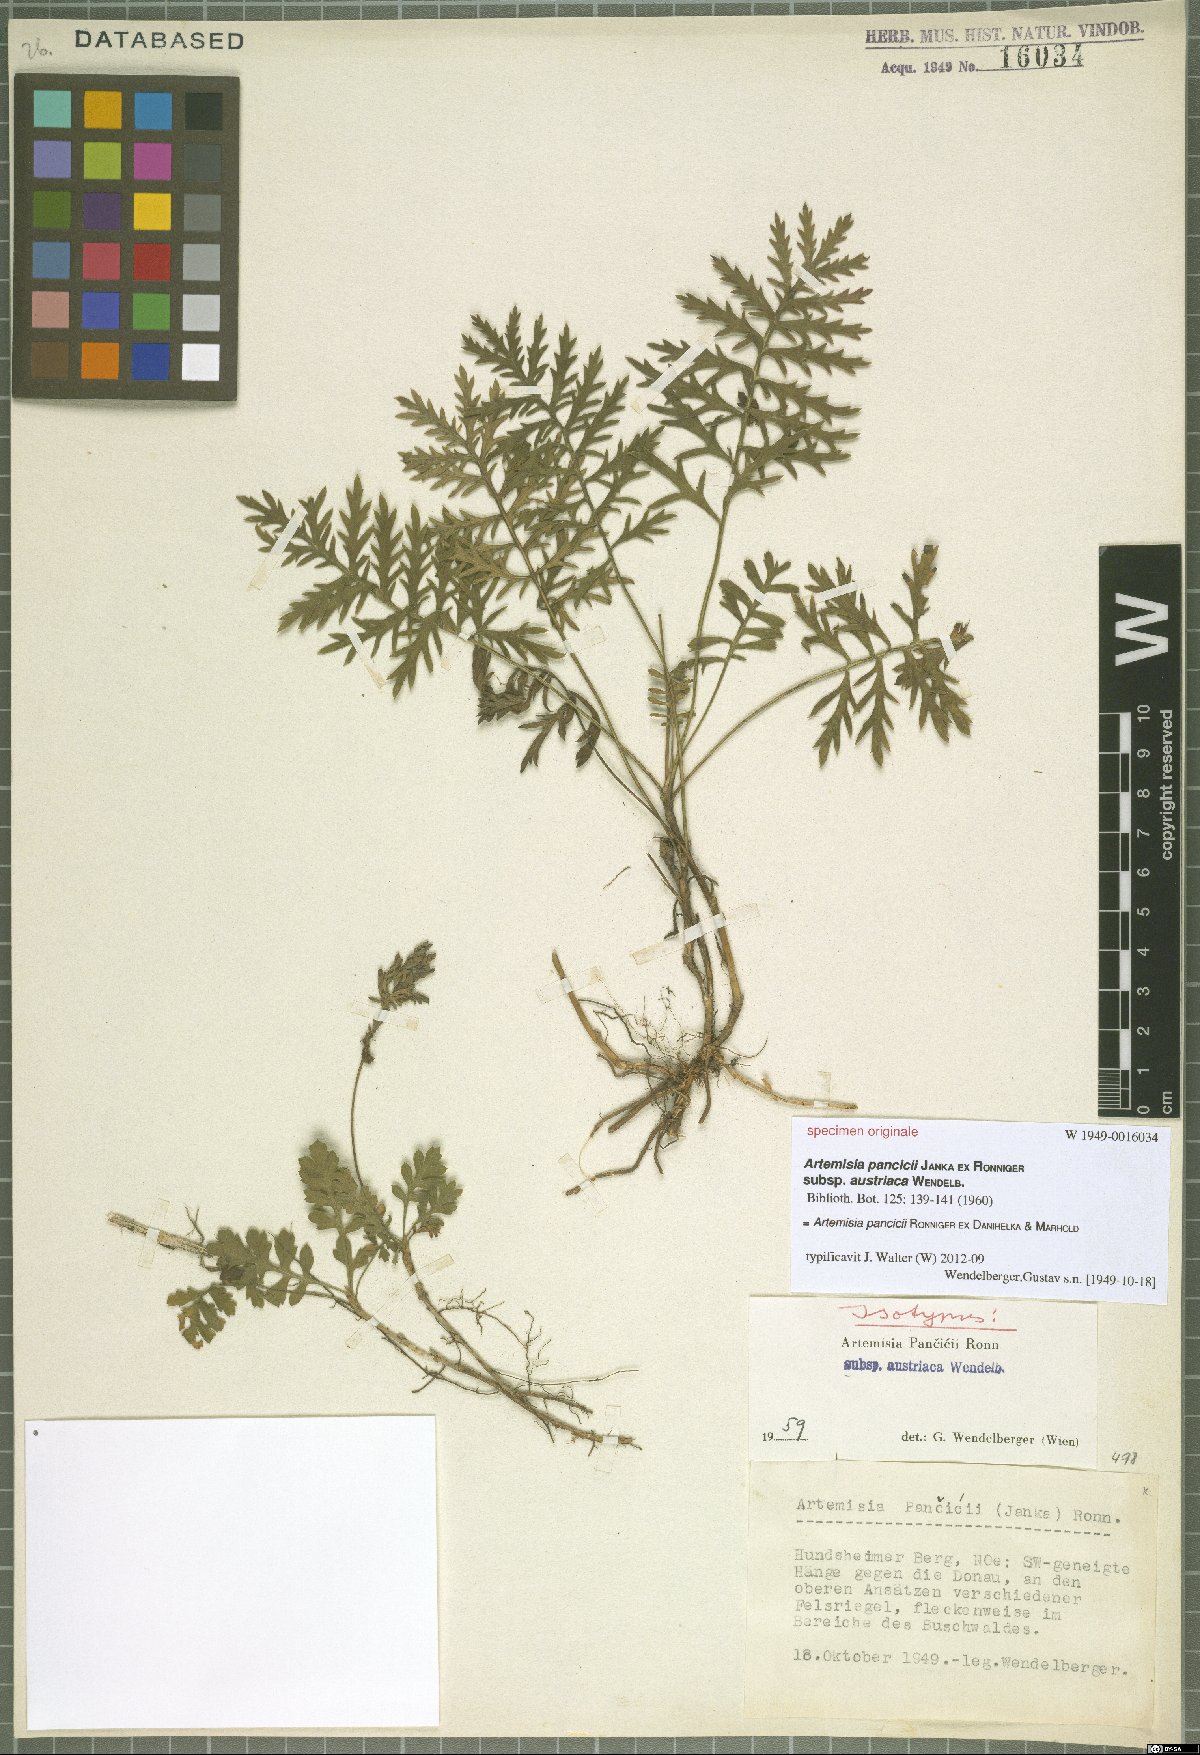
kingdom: Plantae
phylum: Tracheophyta
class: Magnoliopsida
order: Asterales
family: Asteraceae
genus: Artemisia
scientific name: Artemisia pancicii
